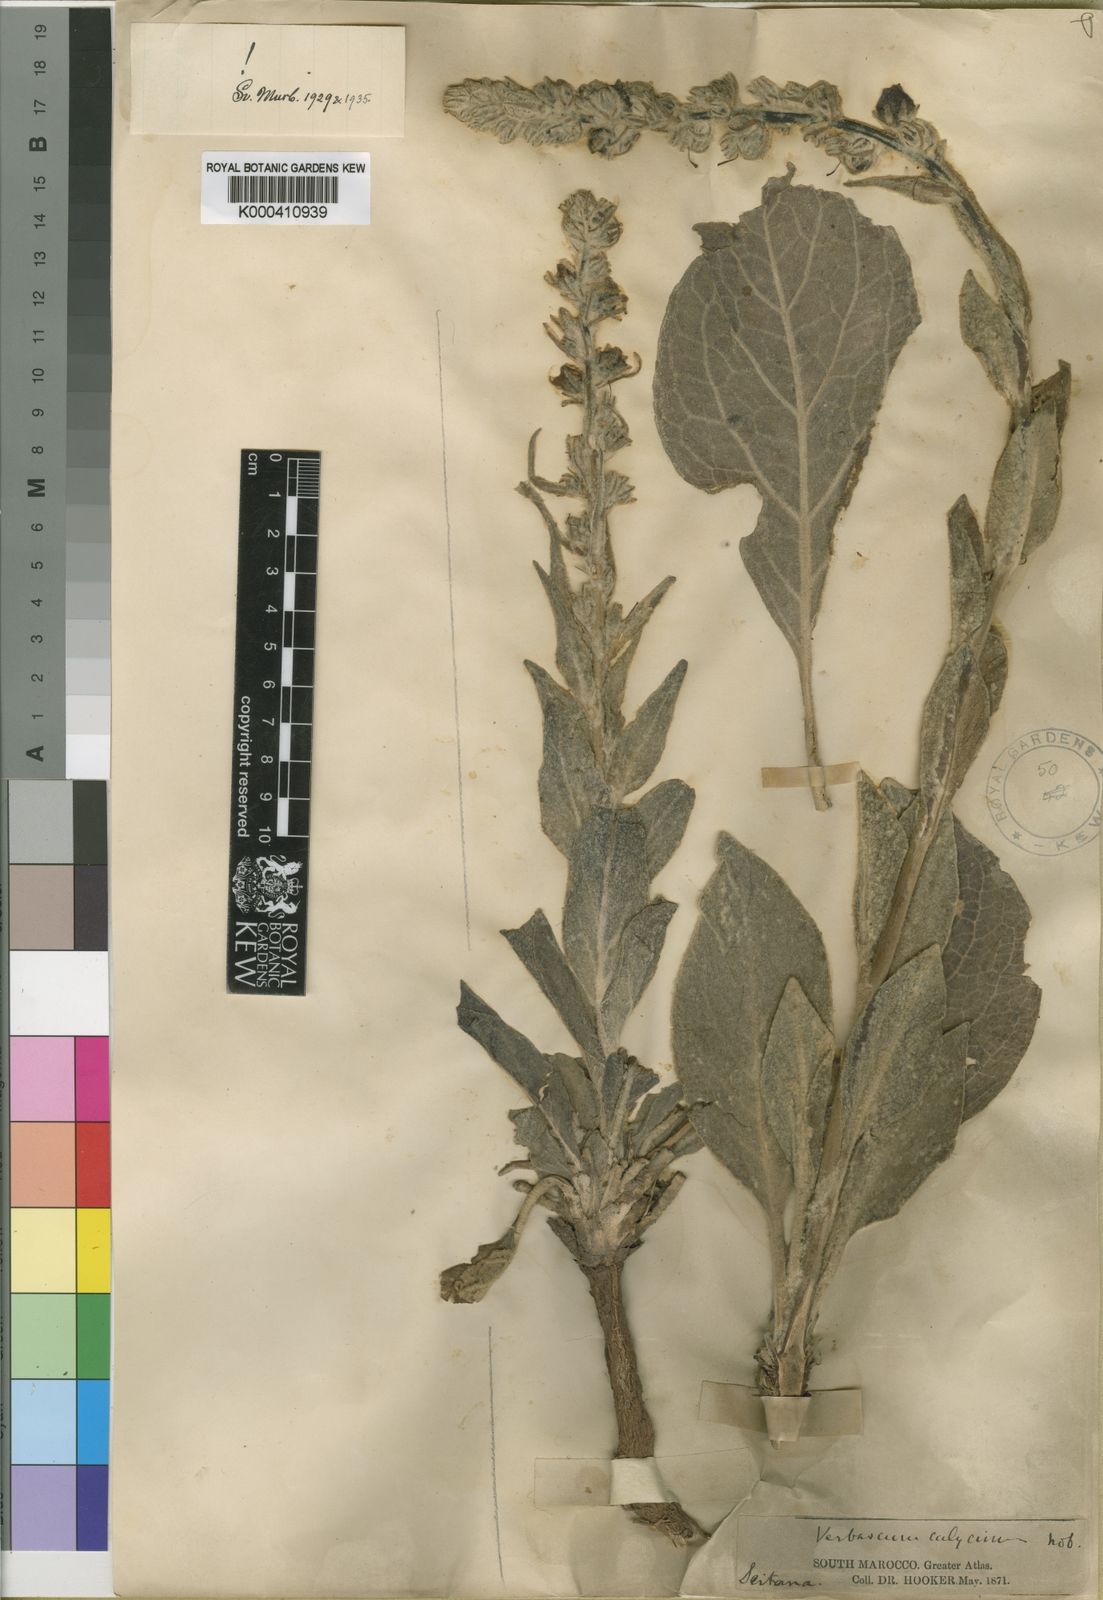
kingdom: Plantae
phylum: Tracheophyta
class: Magnoliopsida
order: Lamiales
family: Scrophulariaceae
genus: Verbascum
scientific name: Verbascum calycinum
